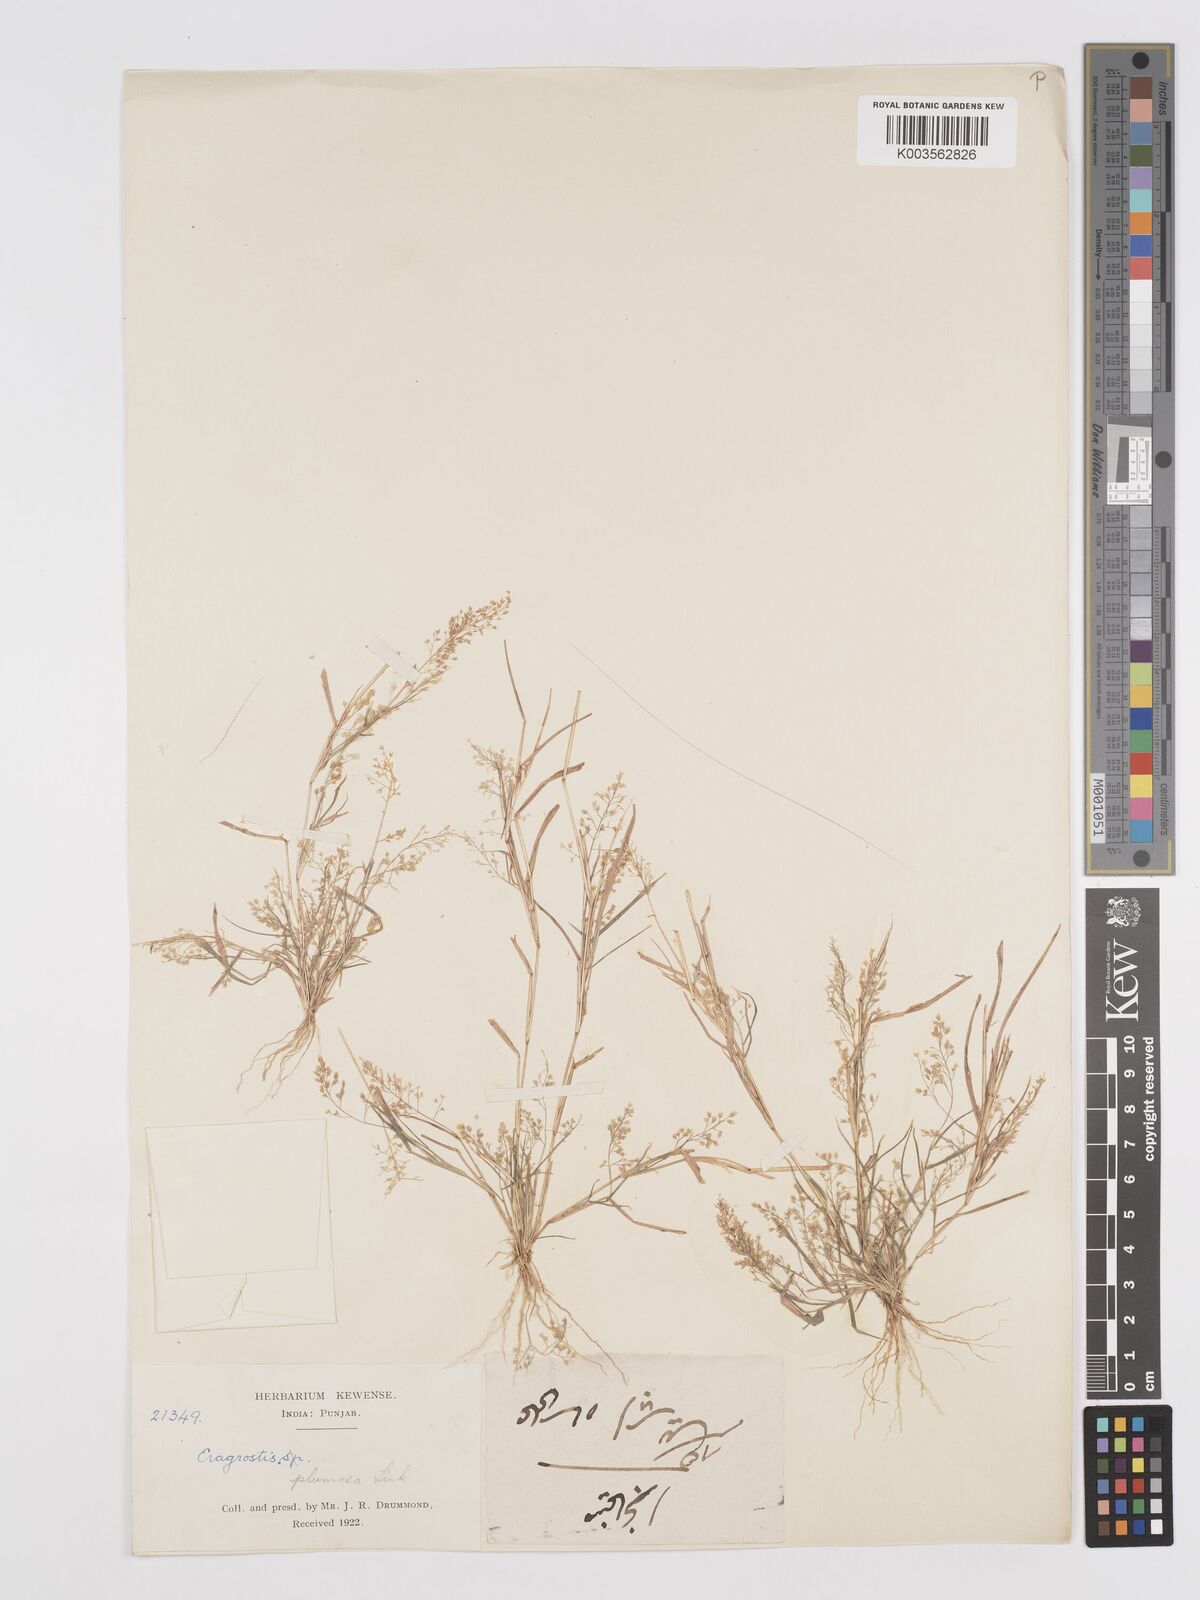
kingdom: Plantae
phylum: Tracheophyta
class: Liliopsida
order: Poales
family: Poaceae
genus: Eragrostis
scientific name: Eragrostis viscosa
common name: Sticky love grass
